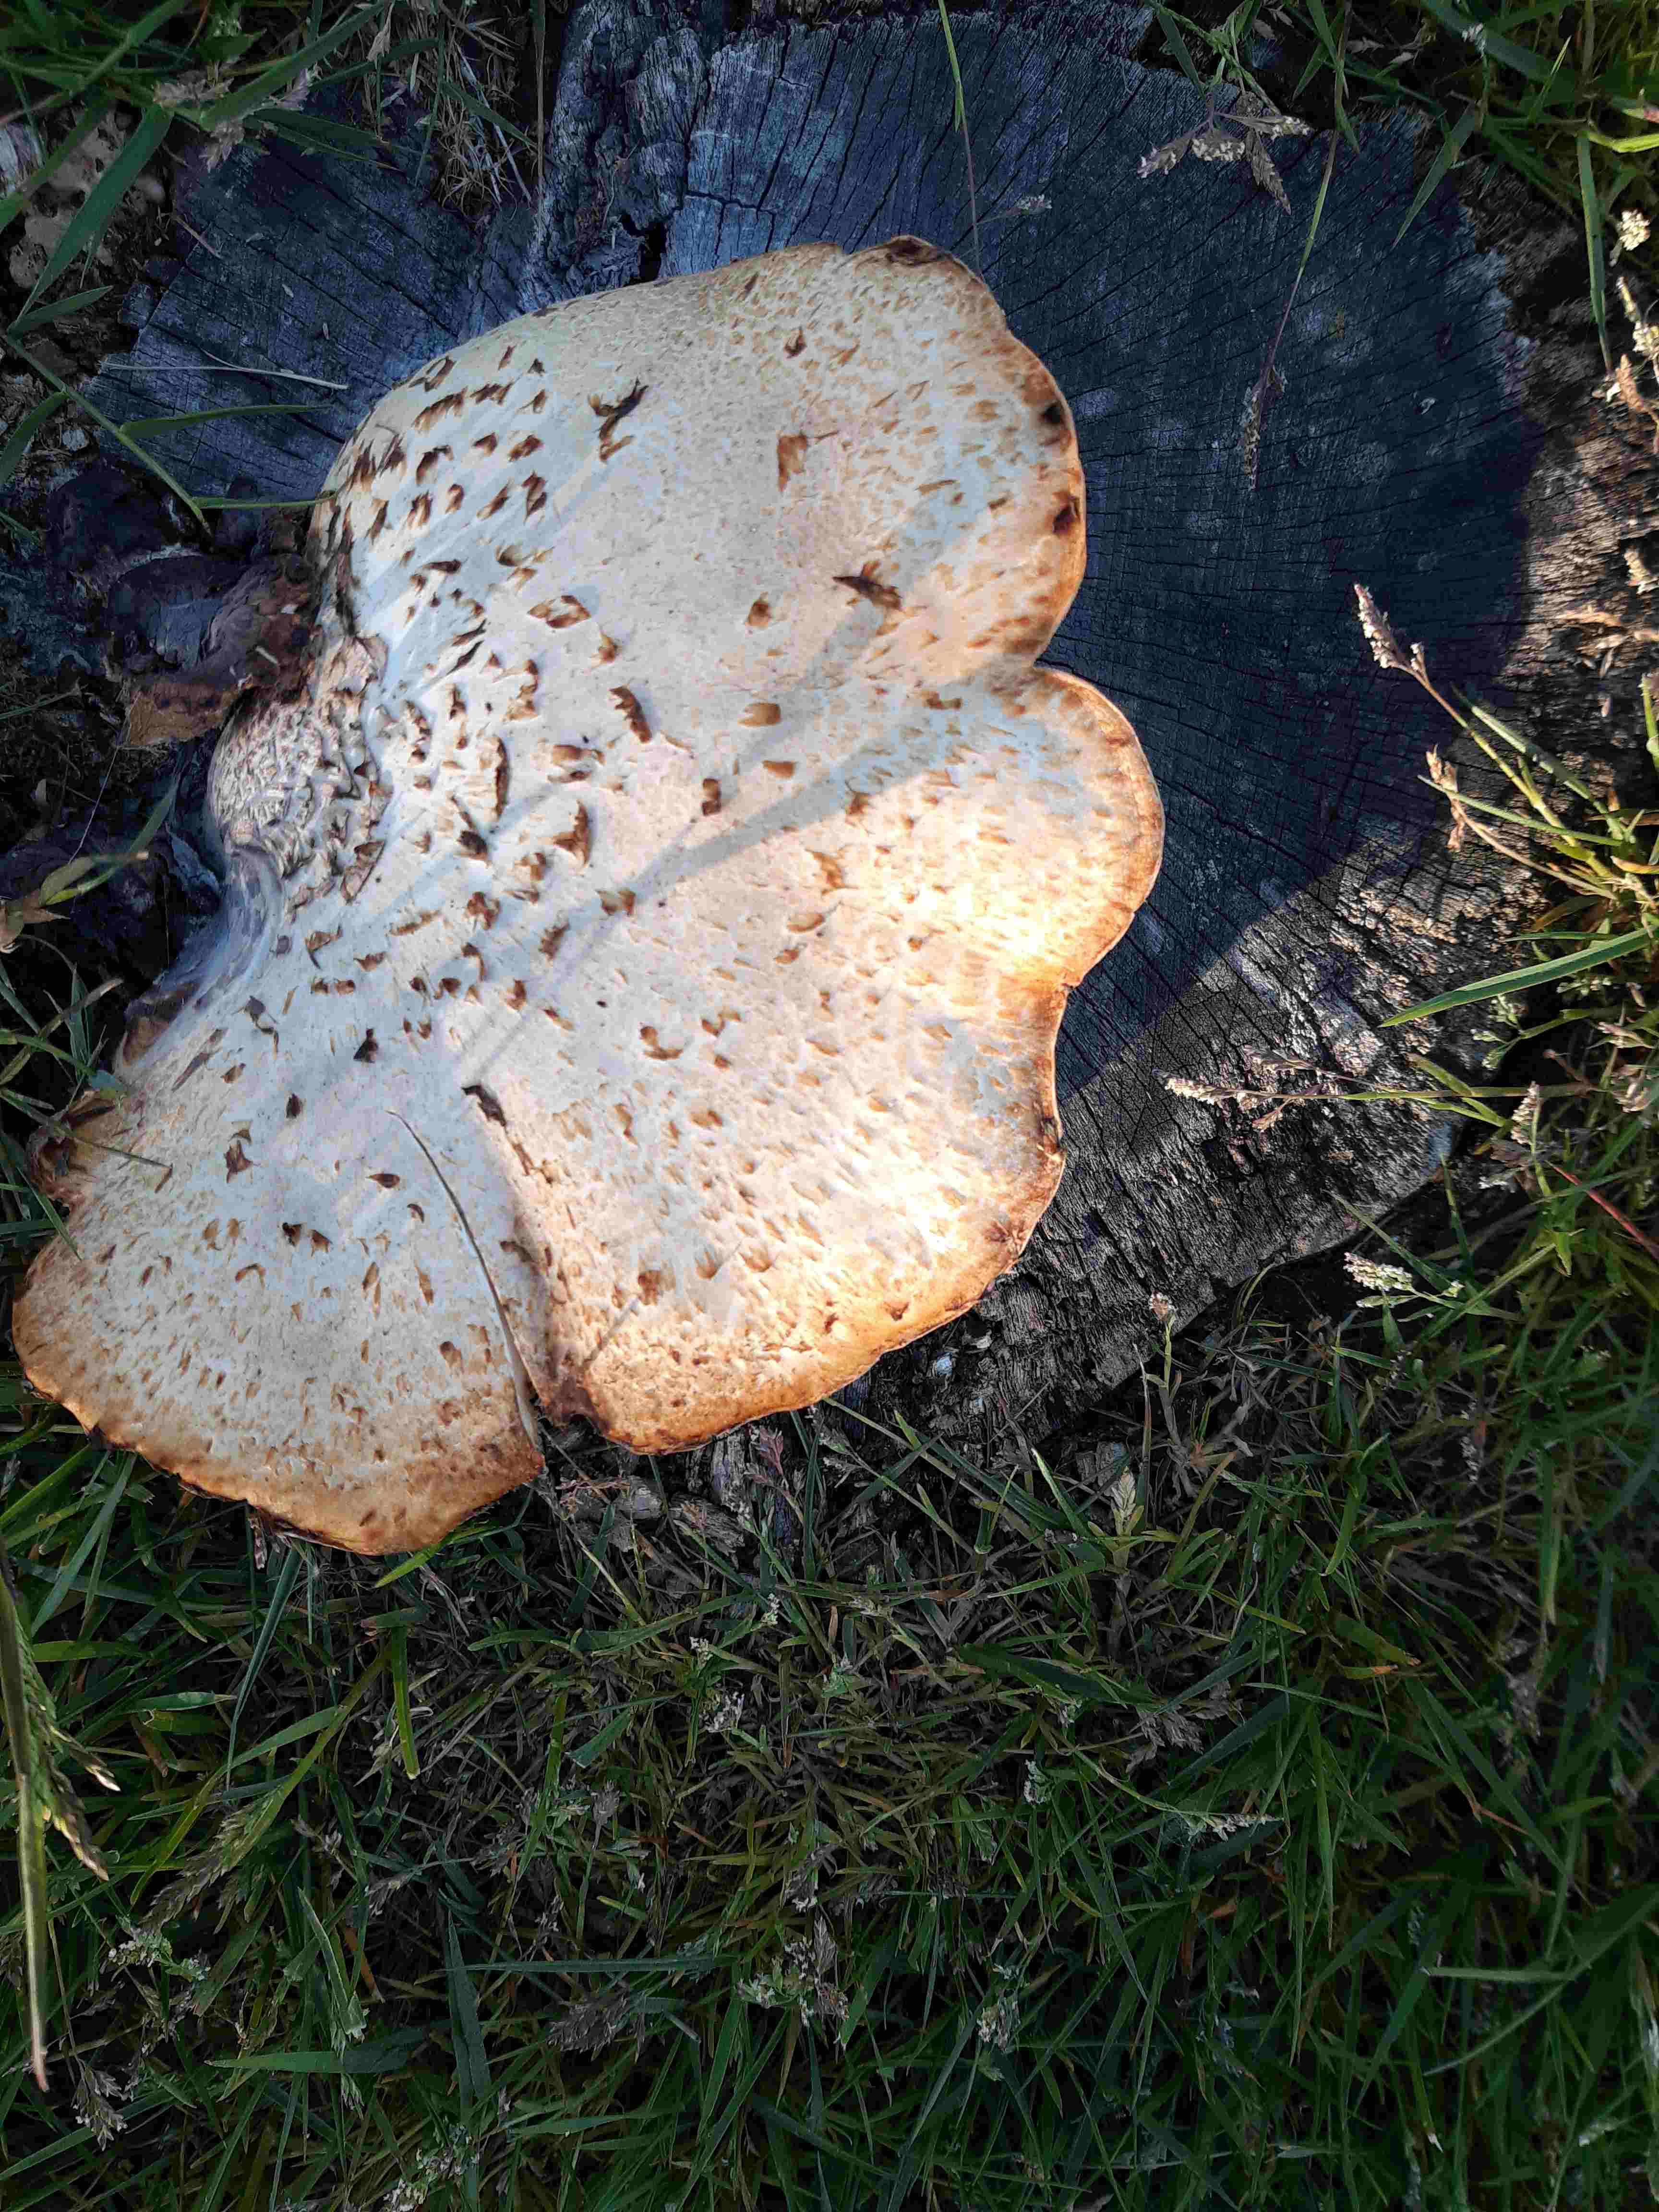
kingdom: Fungi
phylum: Basidiomycota
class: Agaricomycetes
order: Polyporales
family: Polyporaceae
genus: Cerioporus
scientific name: Cerioporus squamosus
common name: skællet stilkporesvamp
